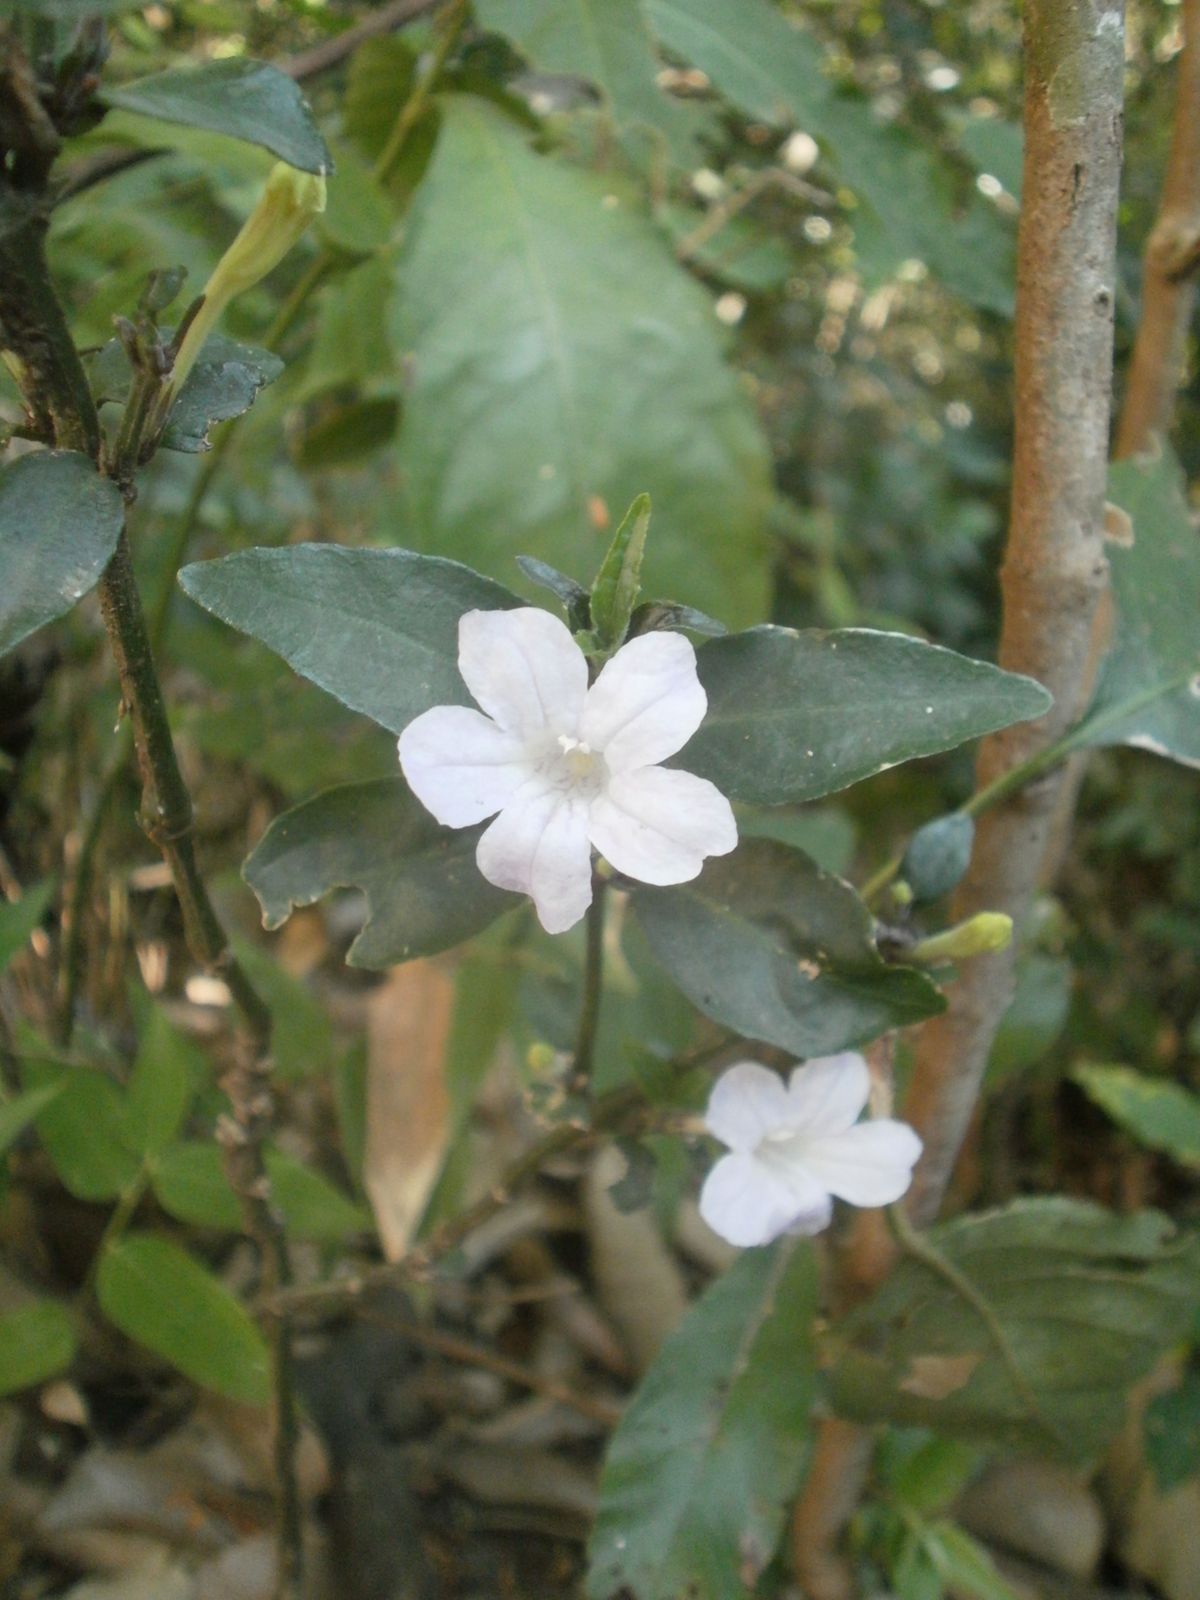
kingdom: Plantae
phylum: Tracheophyta
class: Magnoliopsida
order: Lamiales
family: Acanthaceae
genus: Ruellia
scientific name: Ruellia metallica
